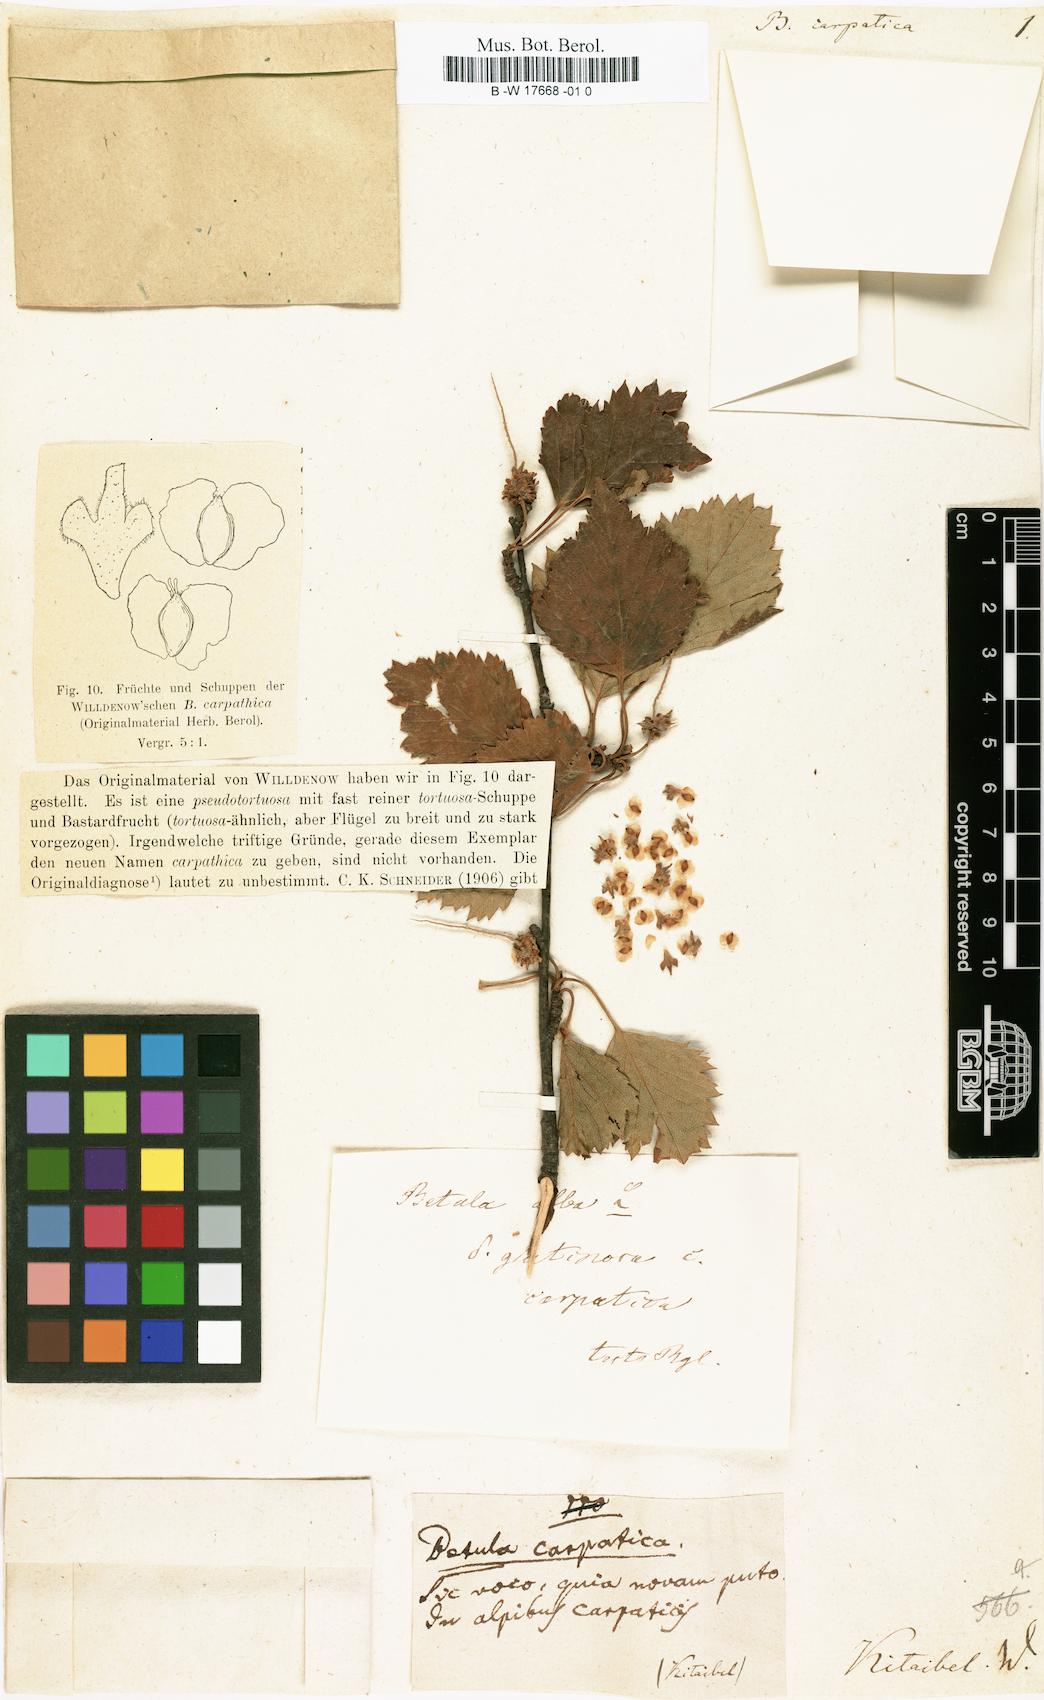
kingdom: Plantae
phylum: Tracheophyta
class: Magnoliopsida
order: Fagales
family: Betulaceae
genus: Betula
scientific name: Betula pubescens
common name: Downy birch
